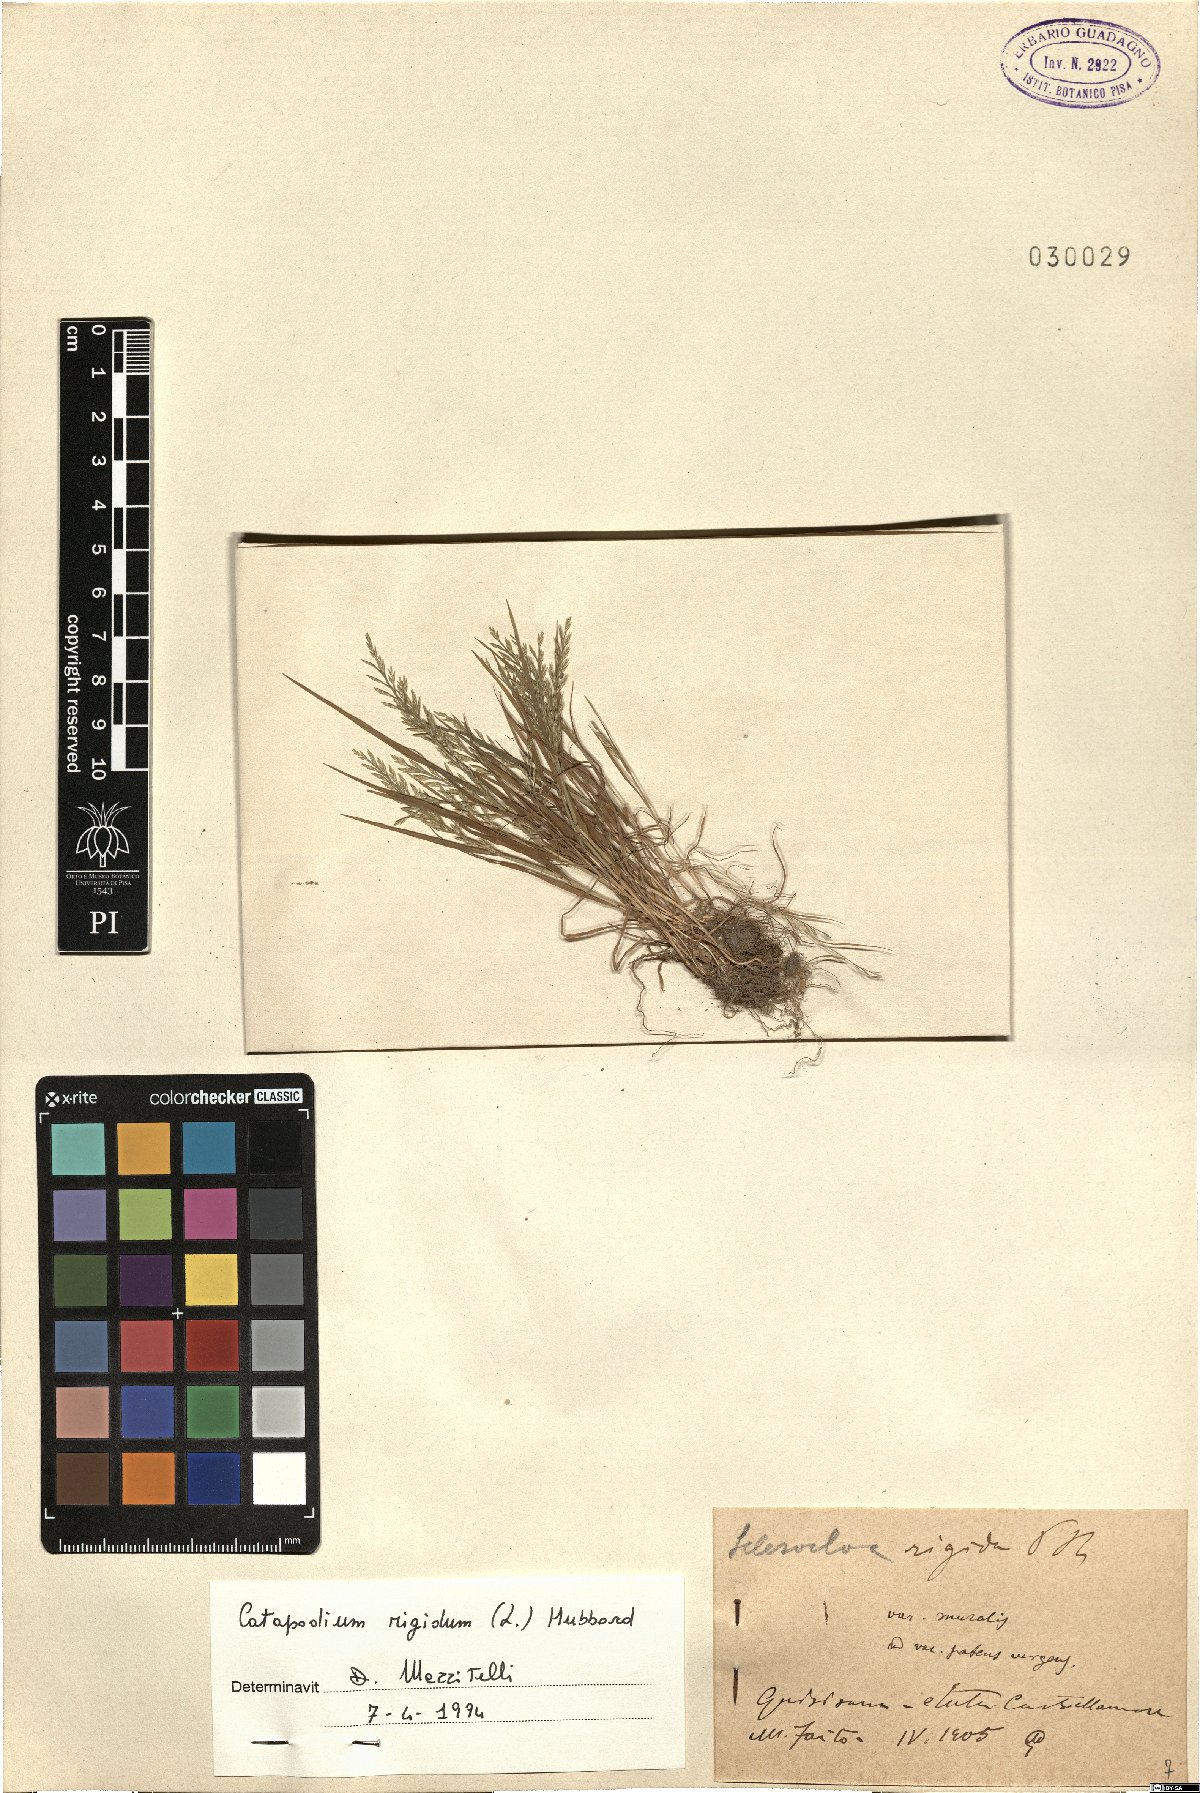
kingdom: Plantae
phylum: Tracheophyta
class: Liliopsida
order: Poales
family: Poaceae
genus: Catapodium
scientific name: Catapodium rigidum
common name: Fern-grass
